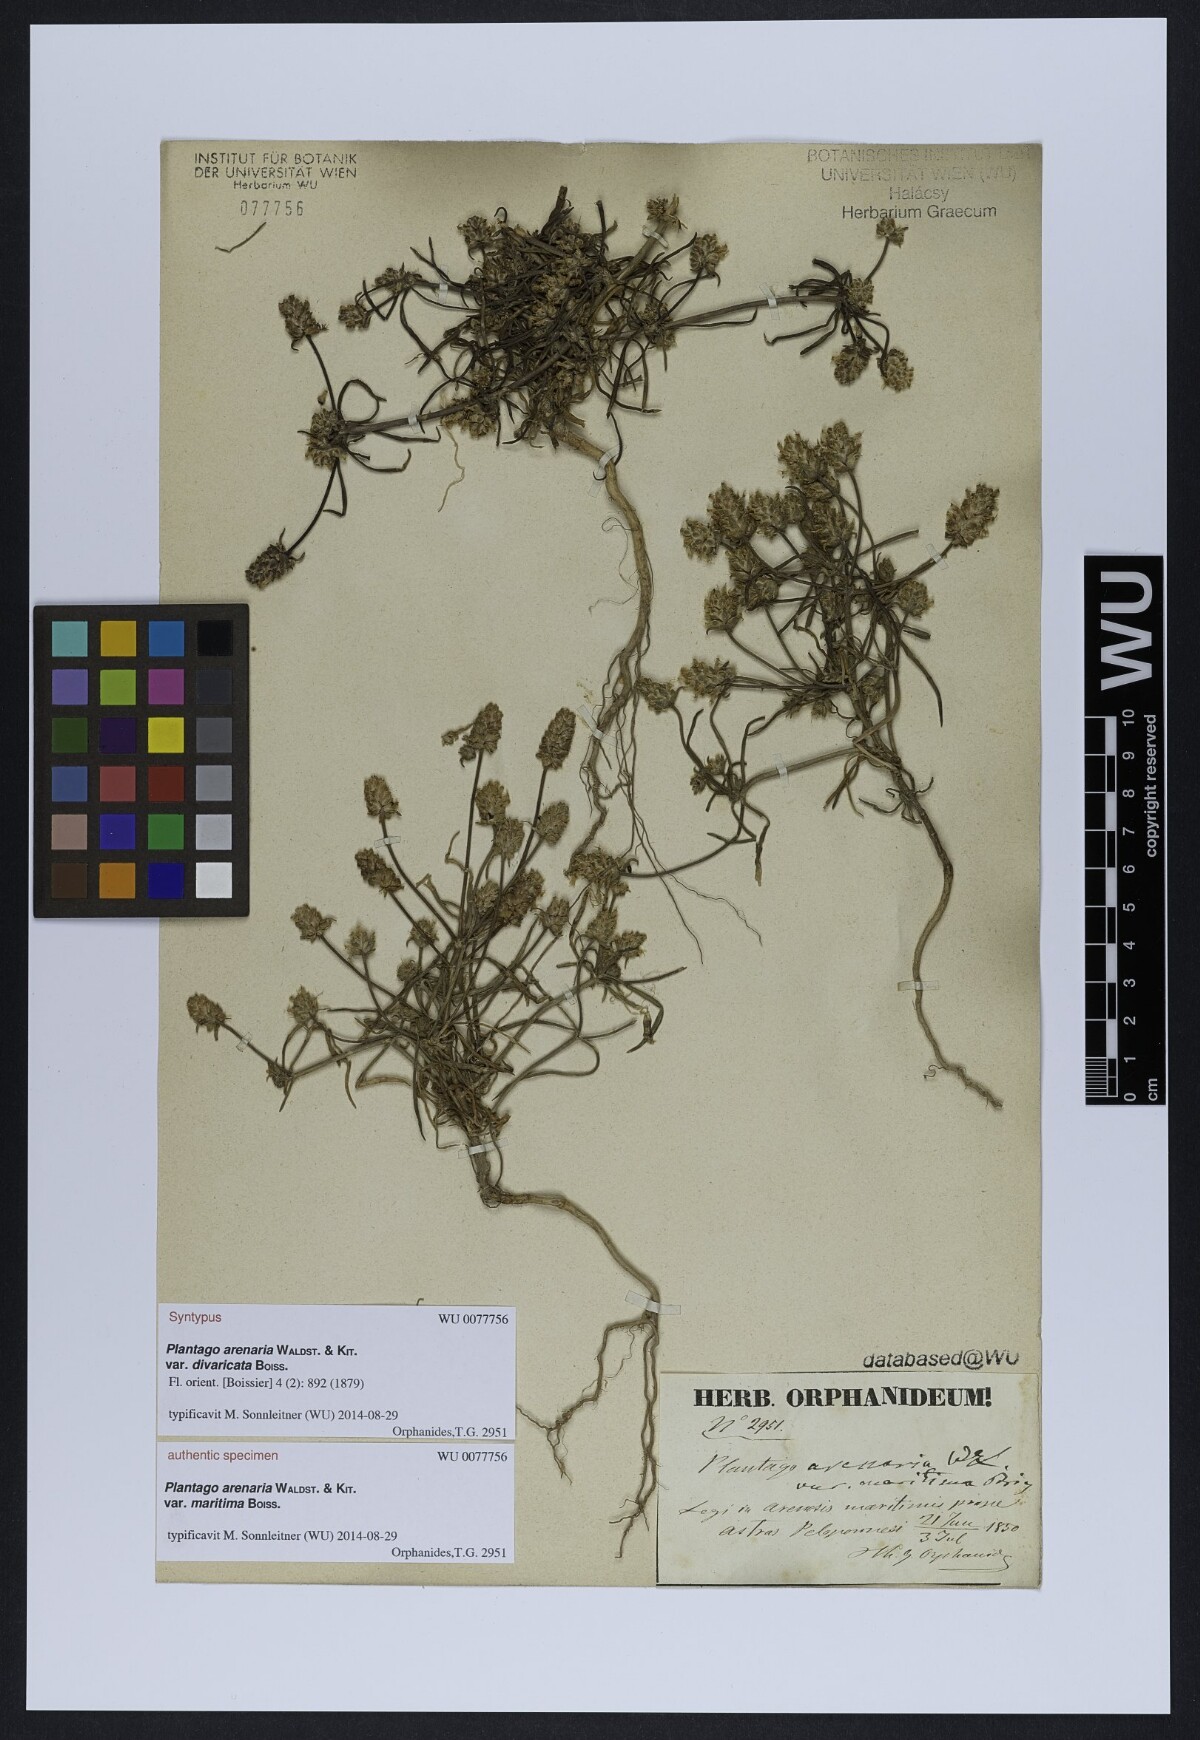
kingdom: Plantae
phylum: Tracheophyta
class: Magnoliopsida
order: Lamiales
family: Plantaginaceae
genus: Plantago
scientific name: Plantago arenaria
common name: Branched plantain
